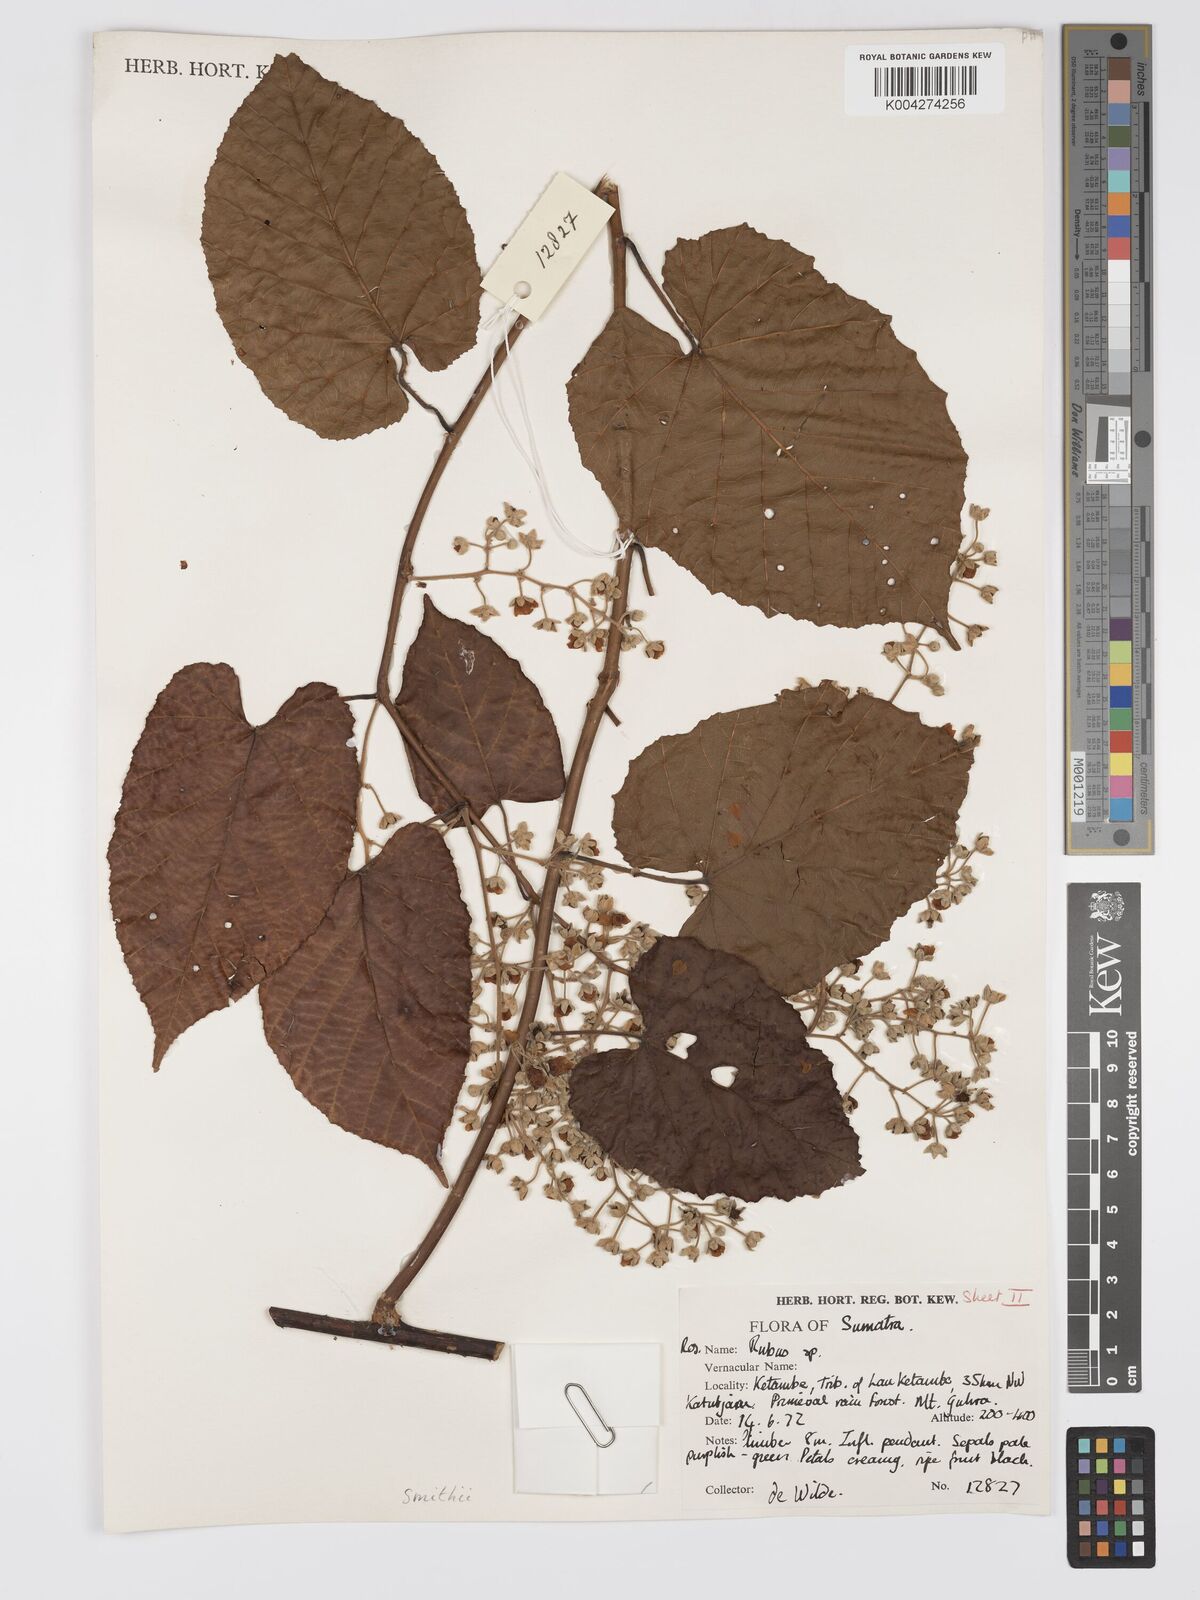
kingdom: Plantae
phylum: Tracheophyta
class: Magnoliopsida
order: Rosales
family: Rosaceae
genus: Rubus
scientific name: Rubus
